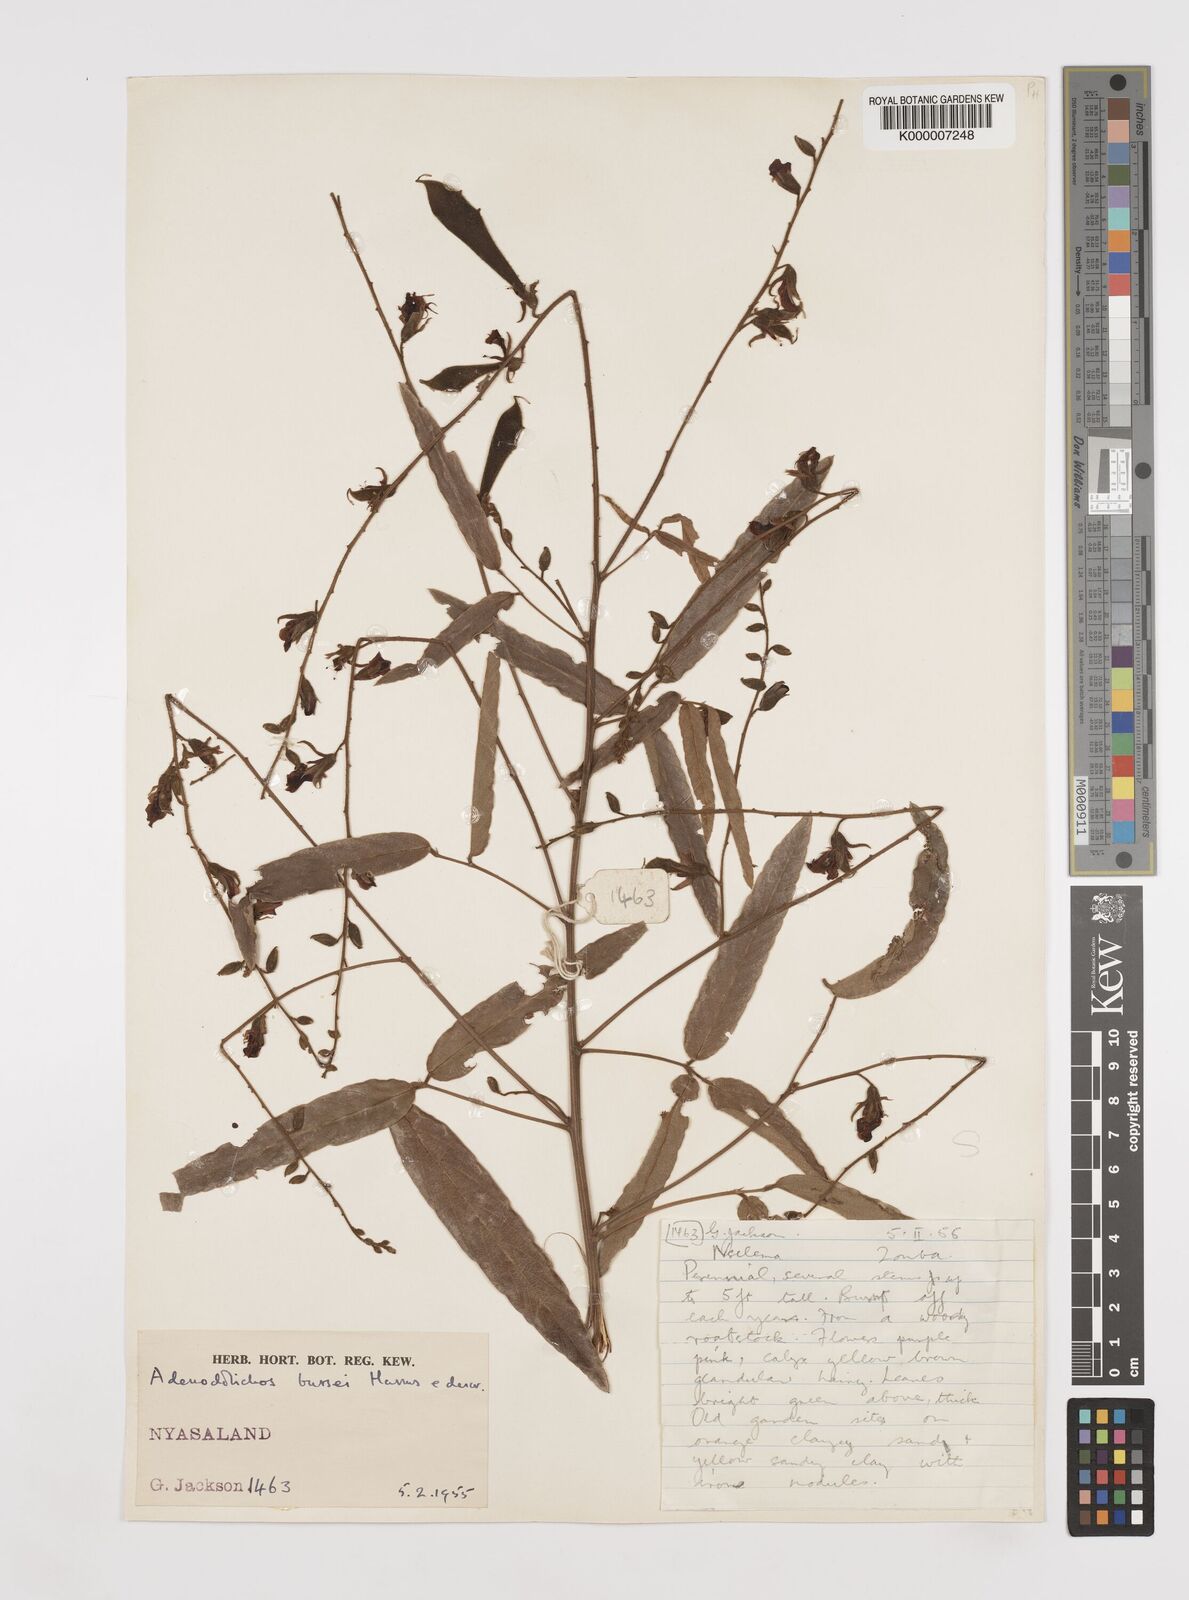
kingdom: Plantae
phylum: Tracheophyta
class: Magnoliopsida
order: Fabales
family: Fabaceae
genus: Adenodolichos
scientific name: Adenodolichos punctatus
